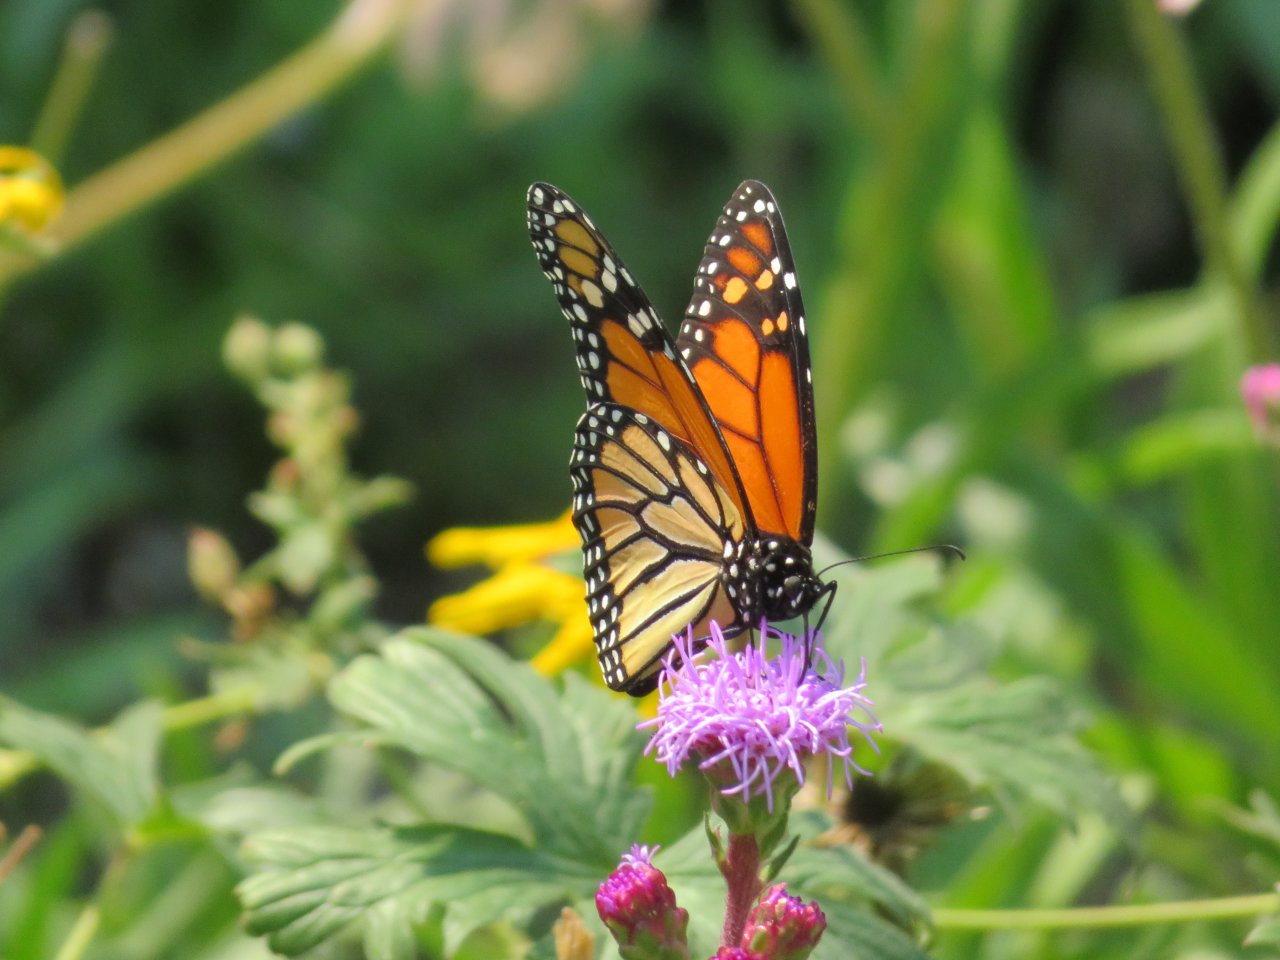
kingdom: Animalia
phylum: Arthropoda
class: Insecta
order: Lepidoptera
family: Nymphalidae
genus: Danaus
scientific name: Danaus plexippus
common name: Monarch
